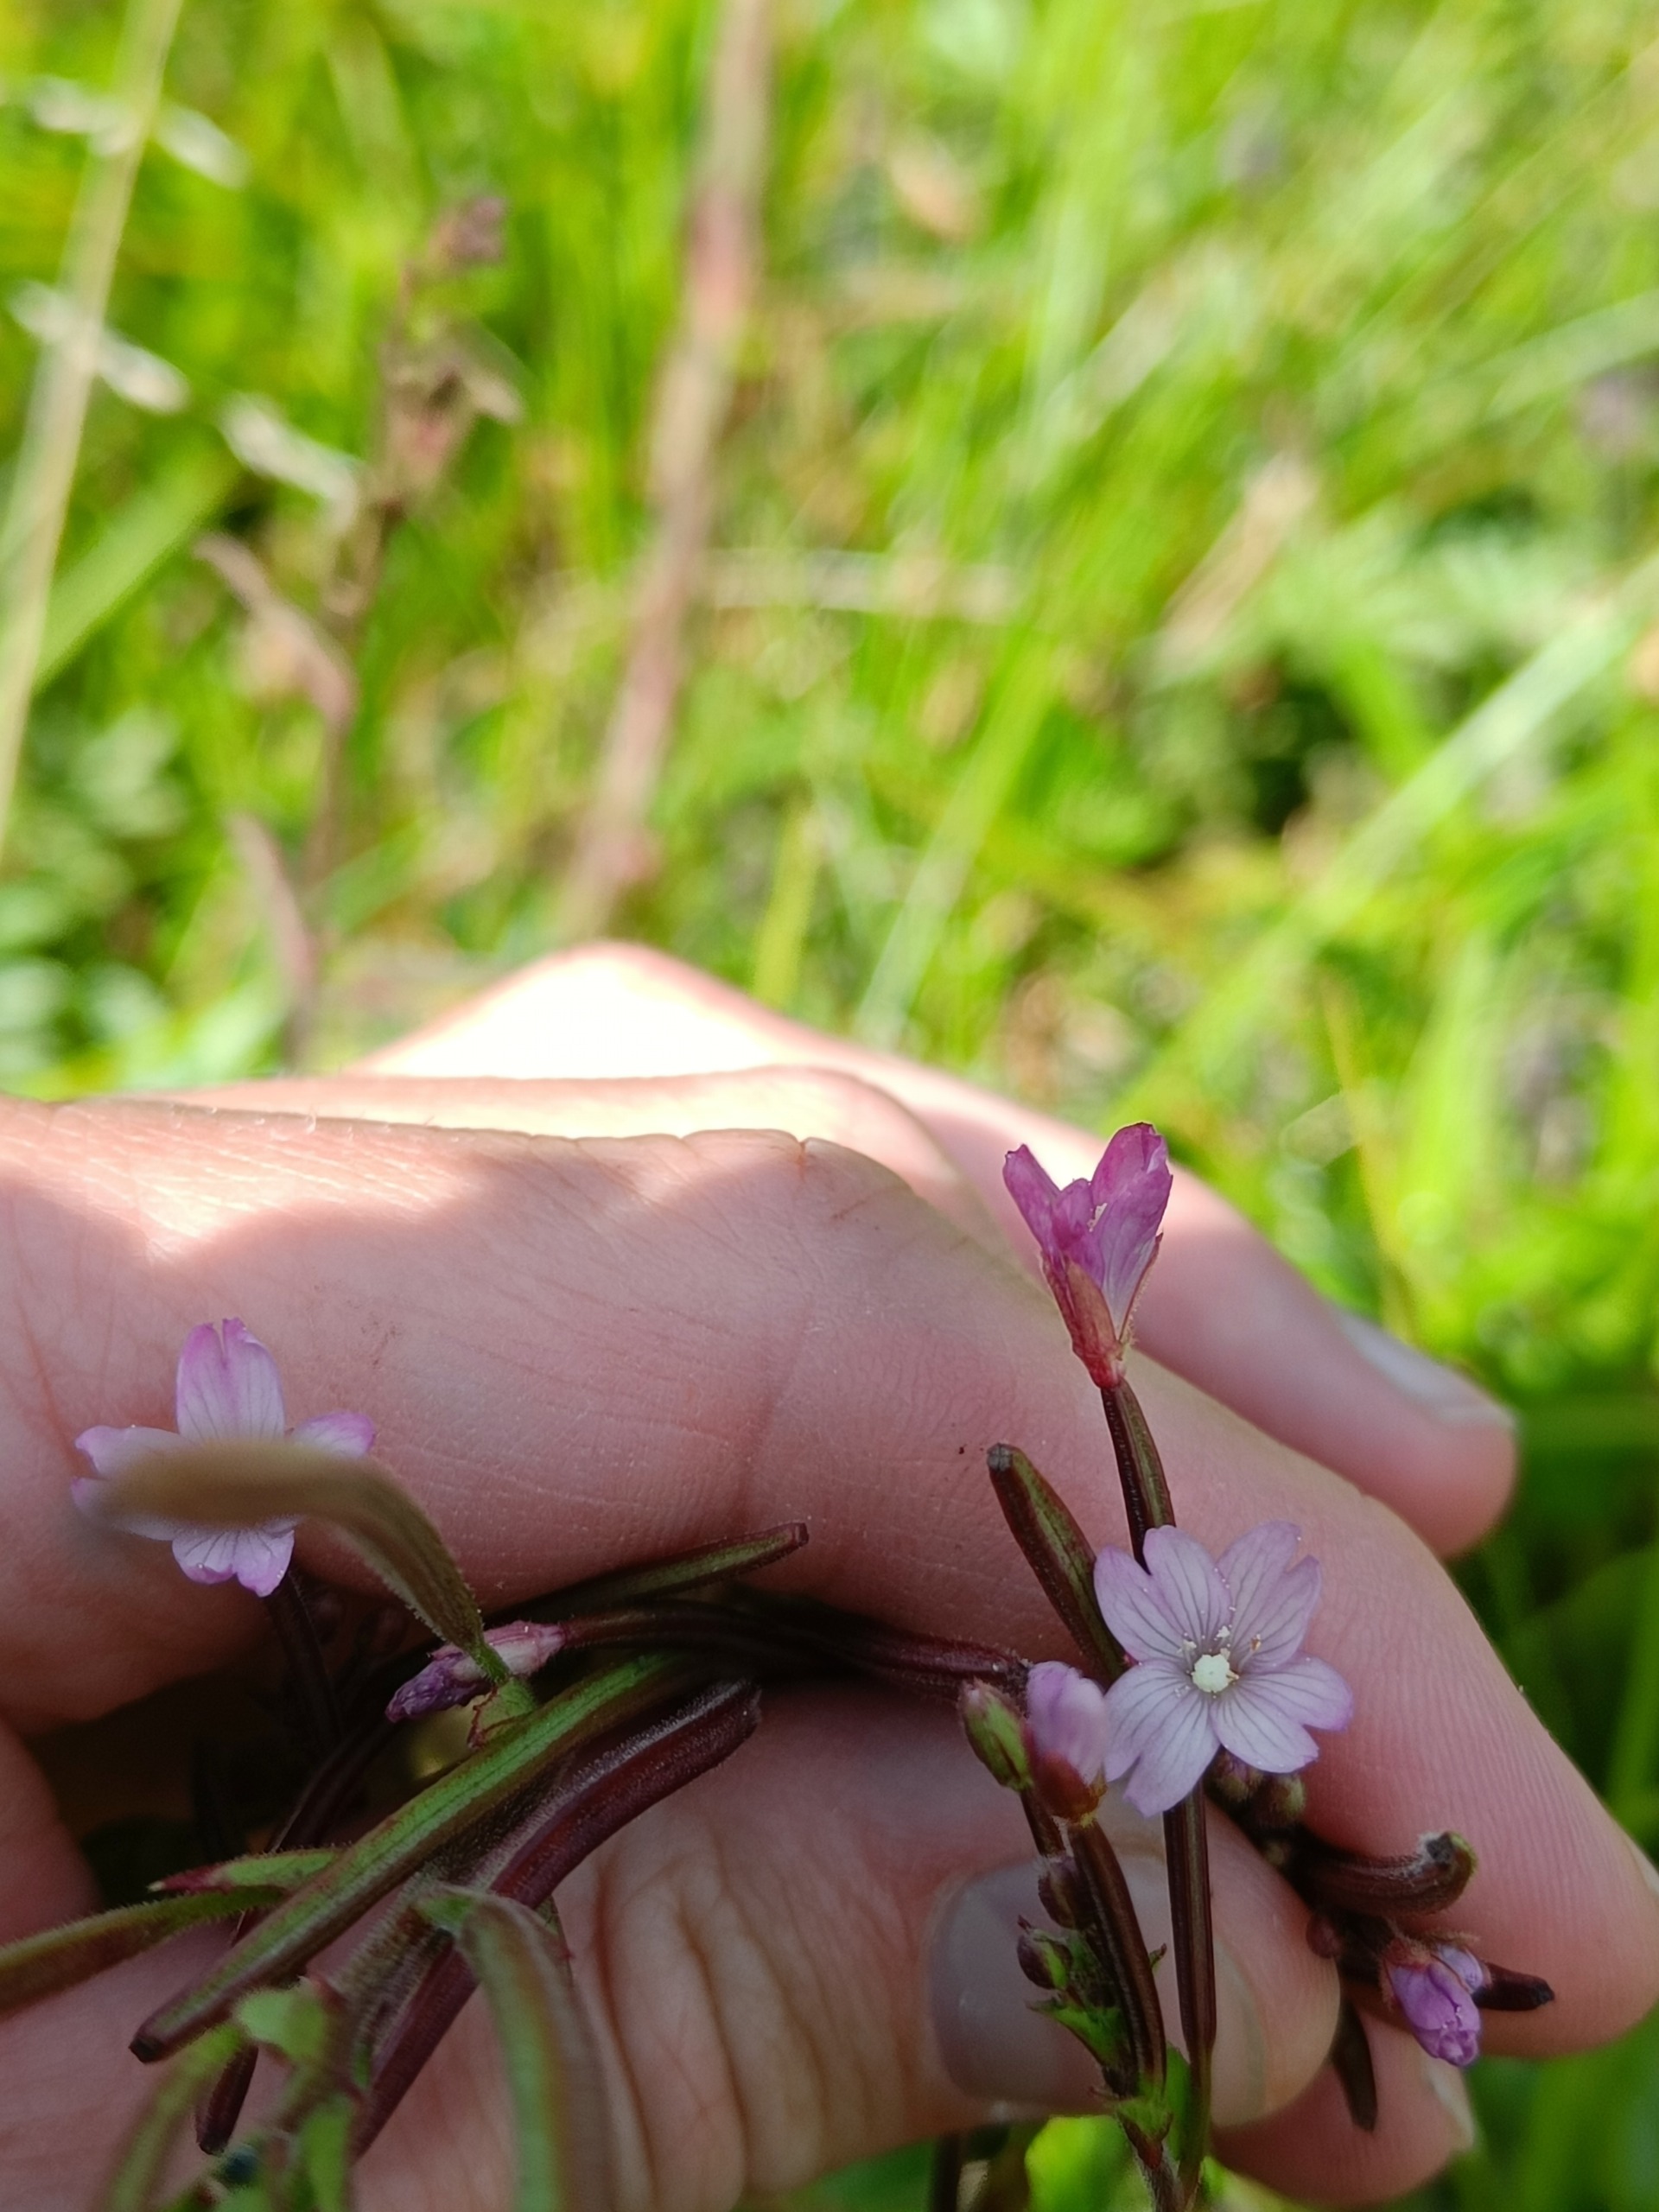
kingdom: Plantae
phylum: Tracheophyta
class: Magnoliopsida
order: Myrtales
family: Onagraceae
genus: Epilobium
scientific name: Epilobium
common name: Dueurtslægten
